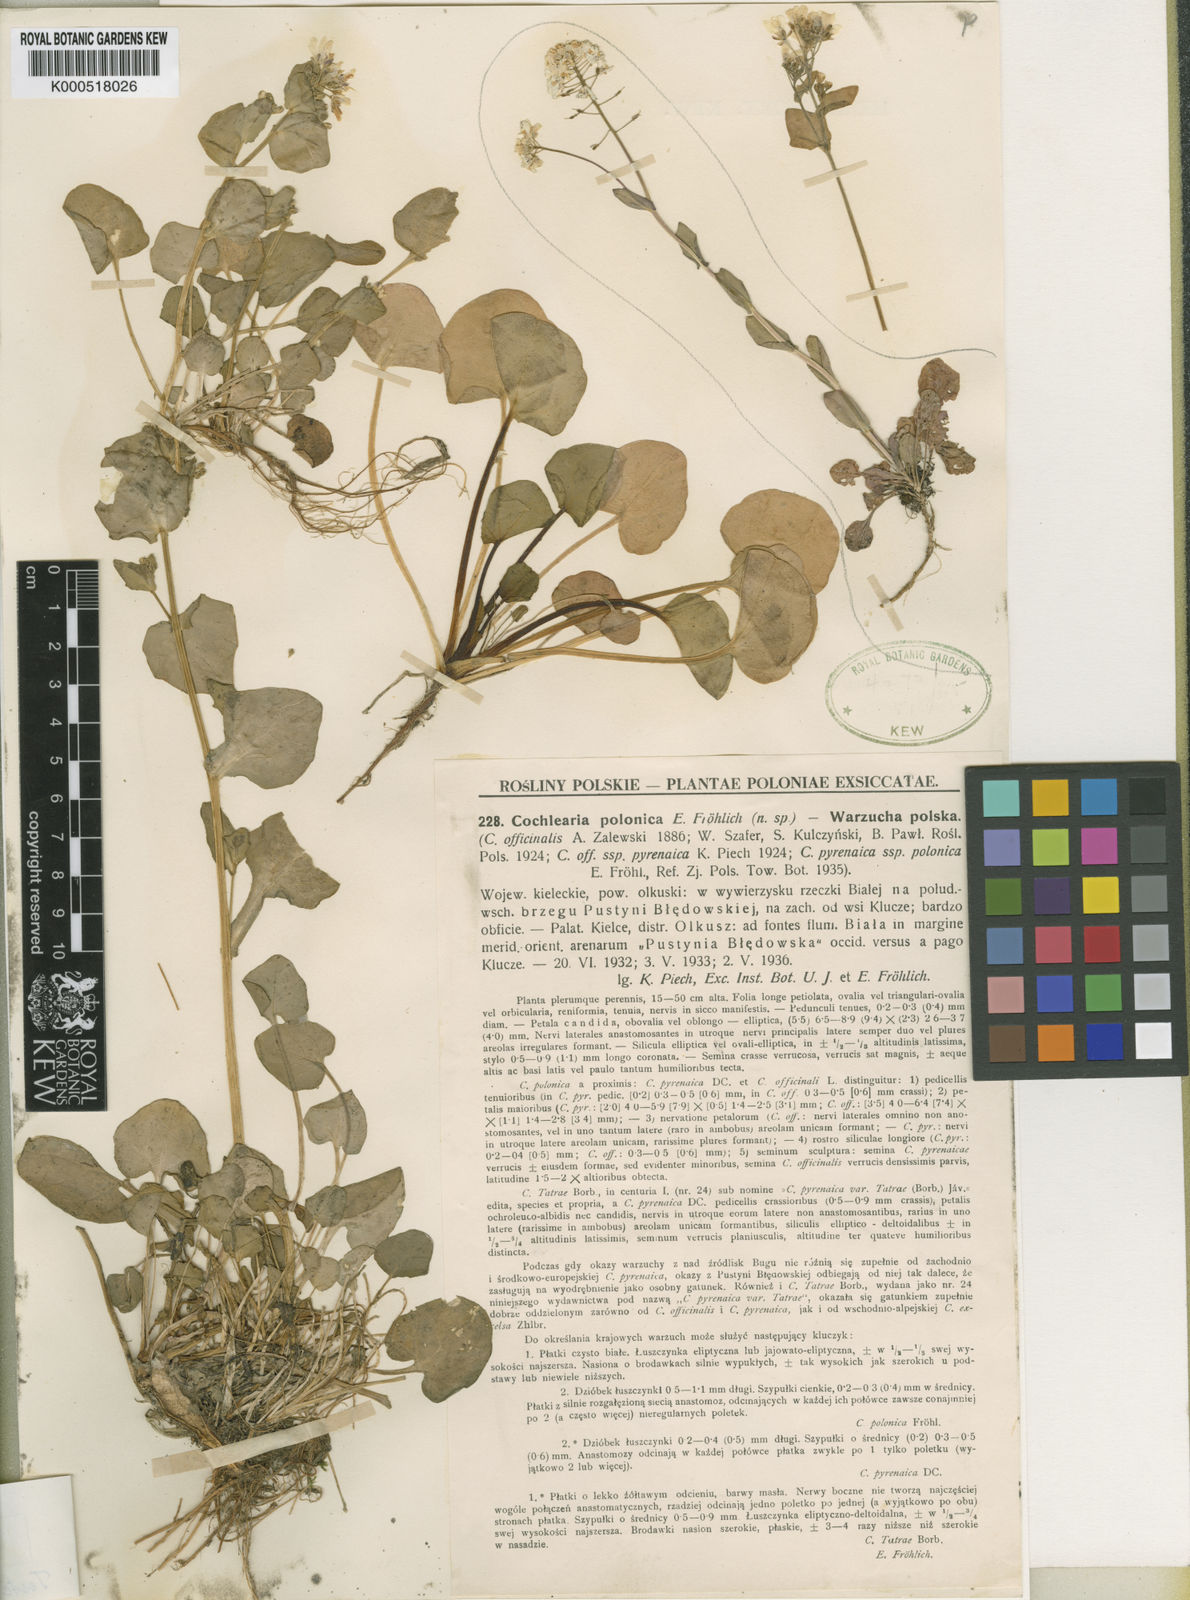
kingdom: Plantae
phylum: Tracheophyta
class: Magnoliopsida
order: Brassicales
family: Brassicaceae
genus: Cochlearia
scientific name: Cochlearia polonica
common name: Polish scurvy-grass
